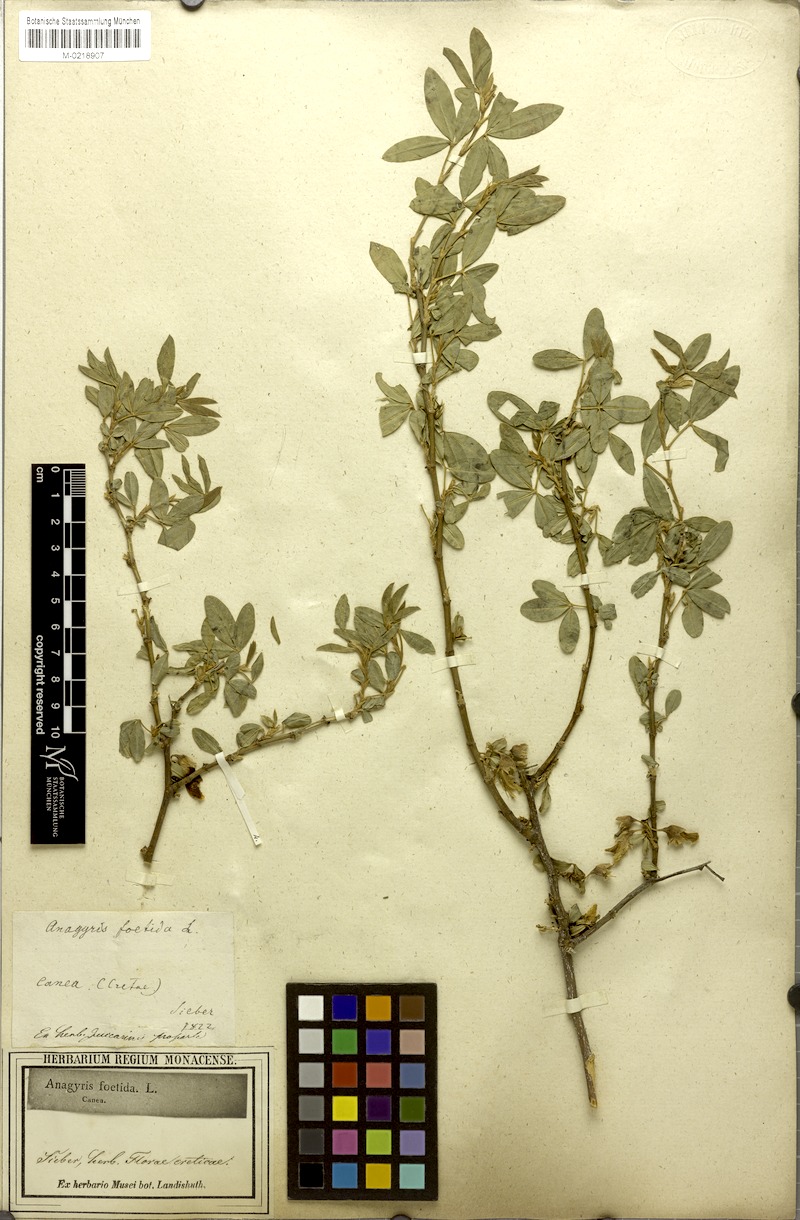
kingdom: Plantae
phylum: Tracheophyta
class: Magnoliopsida
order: Fabales
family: Fabaceae
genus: Anagyris
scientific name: Anagyris foetida
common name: Stinking bean trefoil
